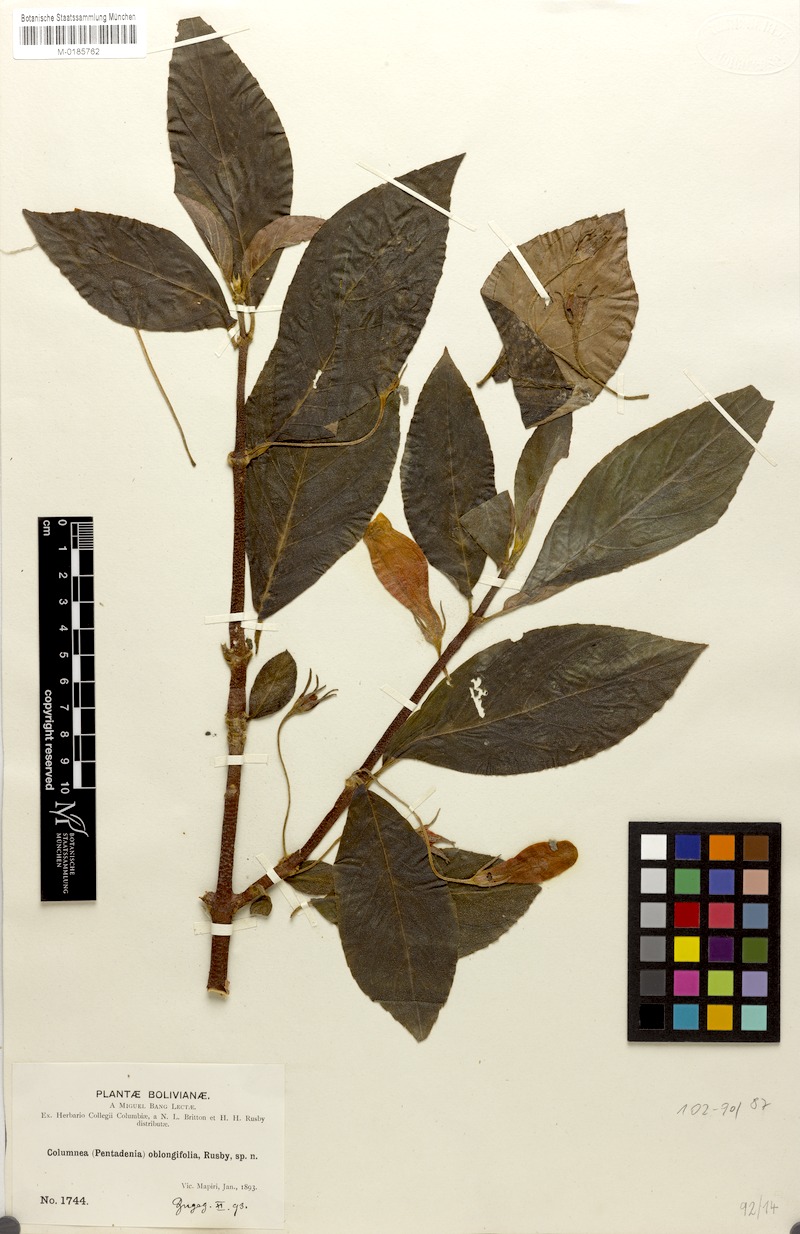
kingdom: Plantae
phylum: Tracheophyta
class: Magnoliopsida
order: Lamiales
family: Gesneriaceae
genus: Columnea
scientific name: Columnea oblongifolia
